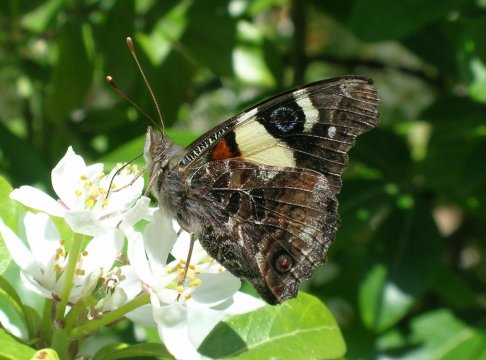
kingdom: Animalia
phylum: Arthropoda
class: Insecta
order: Lepidoptera
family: Nymphalidae
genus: Vanessa
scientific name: Vanessa itea
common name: Yellow Admiral
